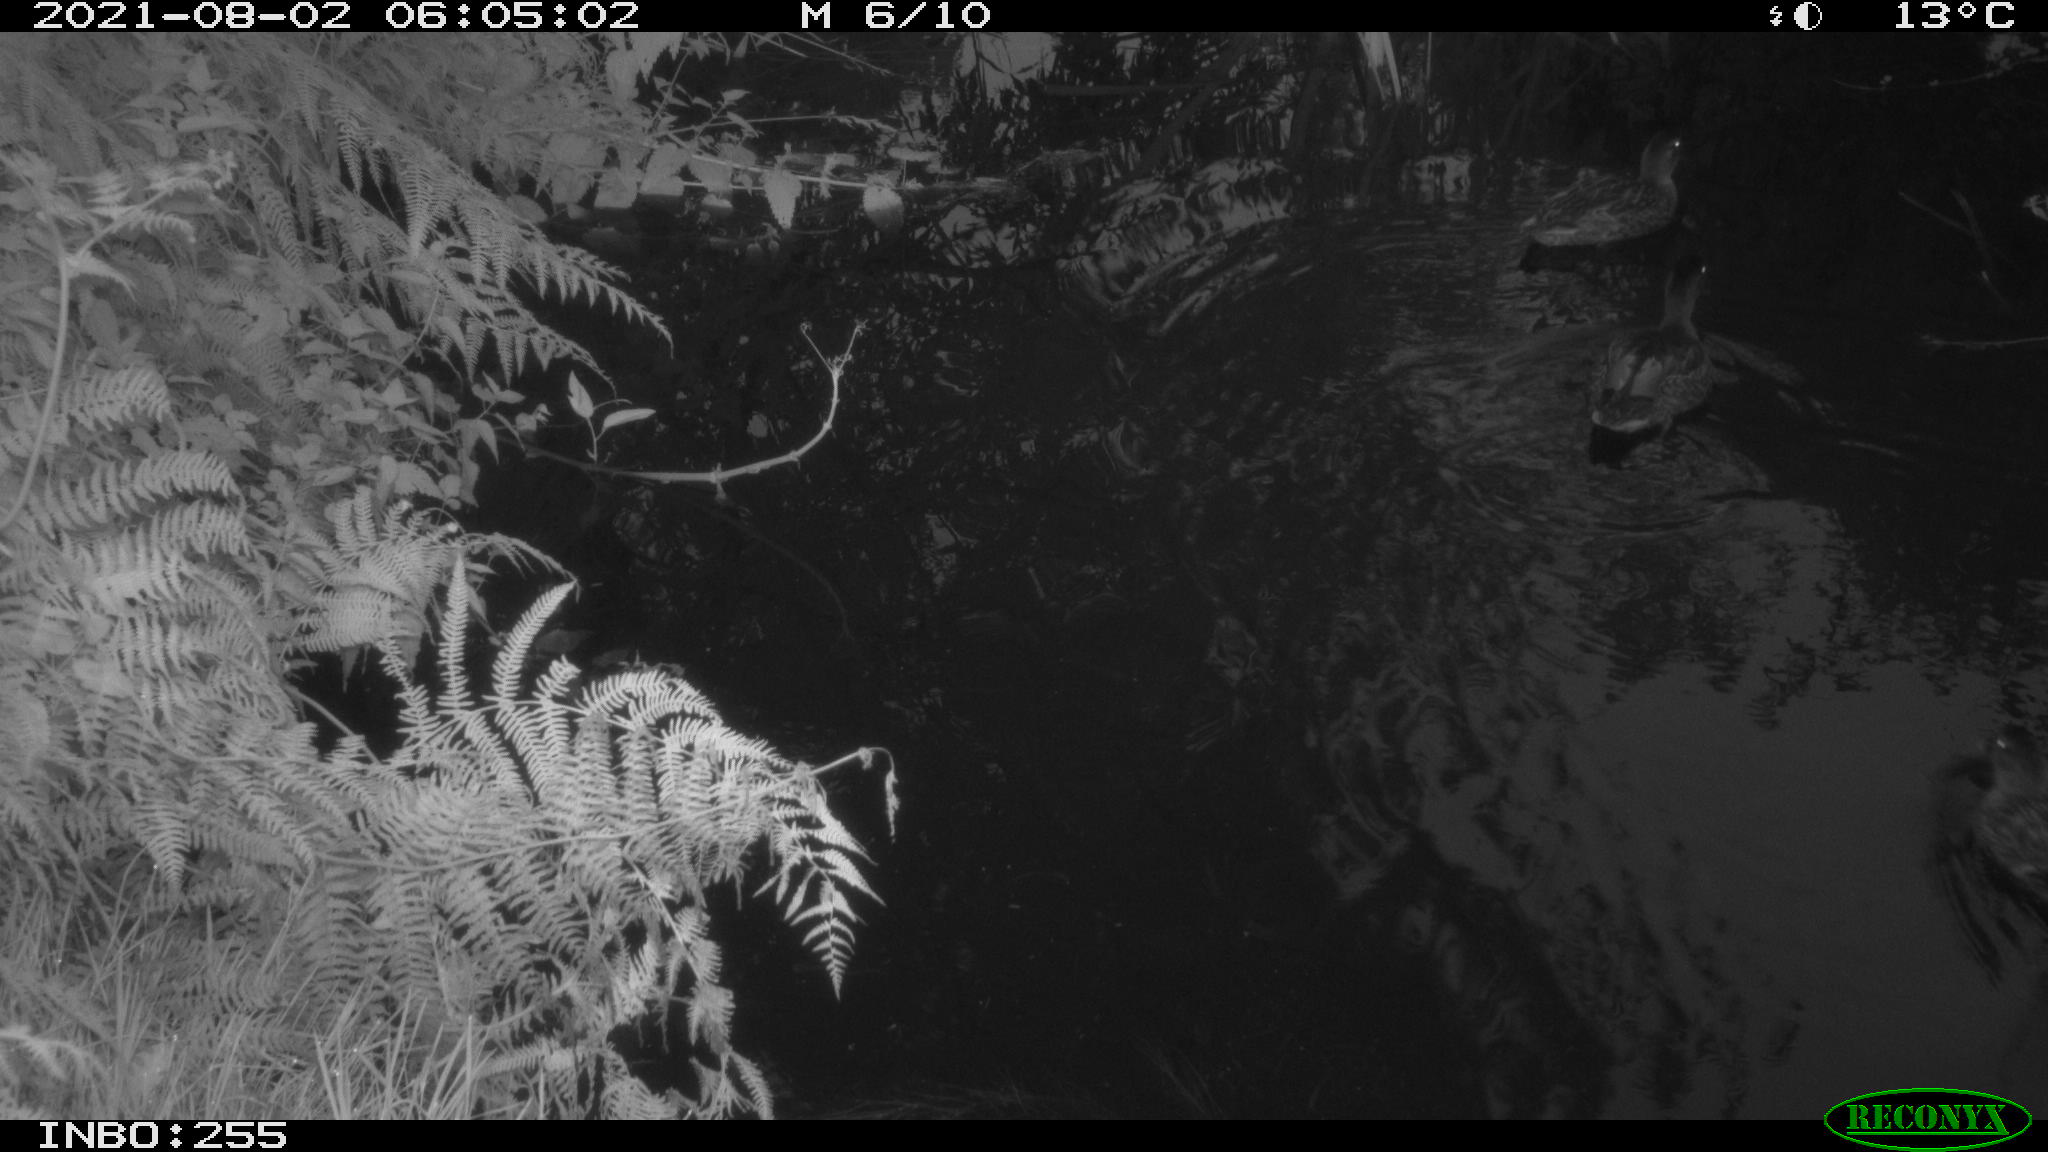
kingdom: Animalia
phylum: Chordata
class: Aves
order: Anseriformes
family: Anatidae
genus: Anas
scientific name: Anas platyrhynchos
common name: Mallard
